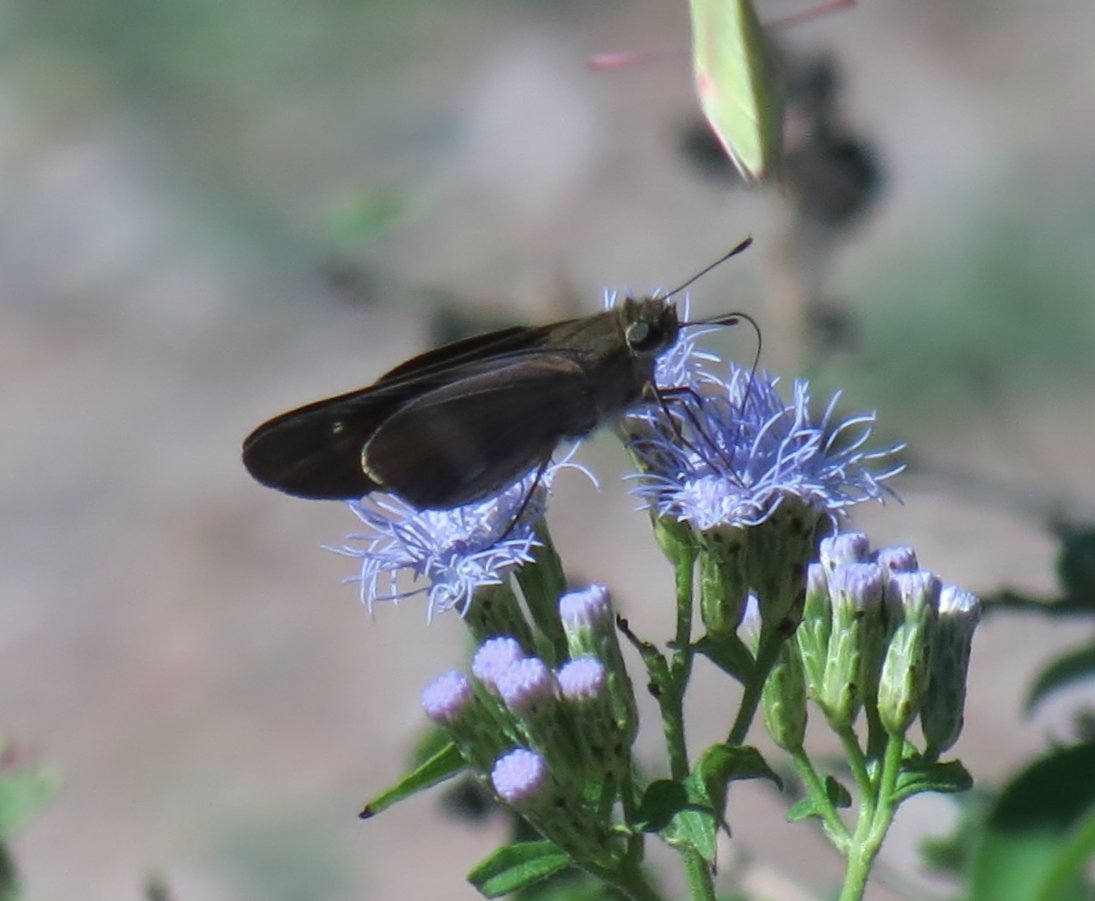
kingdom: Animalia
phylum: Arthropoda
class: Insecta
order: Lepidoptera
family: Hesperiidae
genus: Panoquina
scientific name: Panoquina fusina
